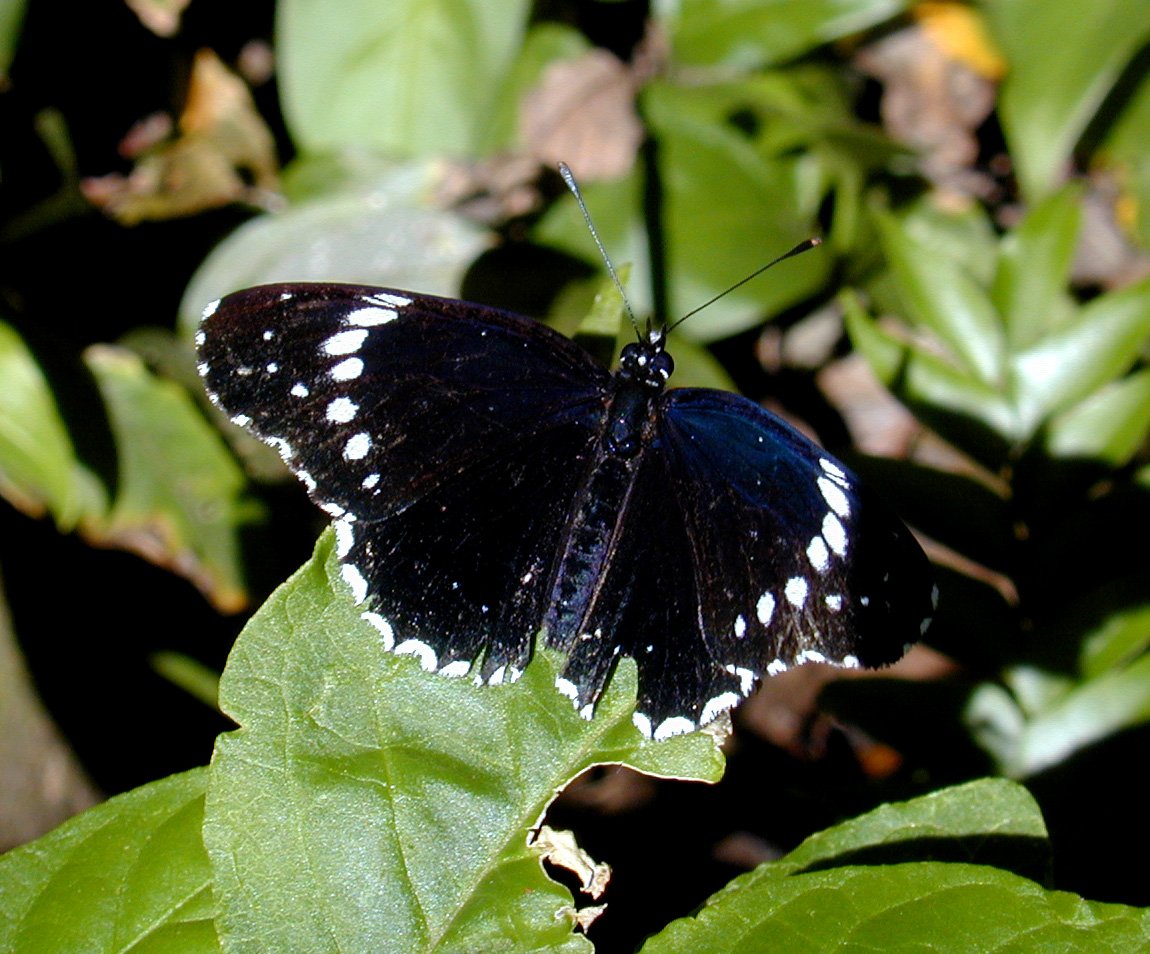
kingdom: Animalia
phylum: Arthropoda
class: Insecta
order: Lepidoptera
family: Nymphalidae
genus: Chlosyne
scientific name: Chlosyne hippodrome
